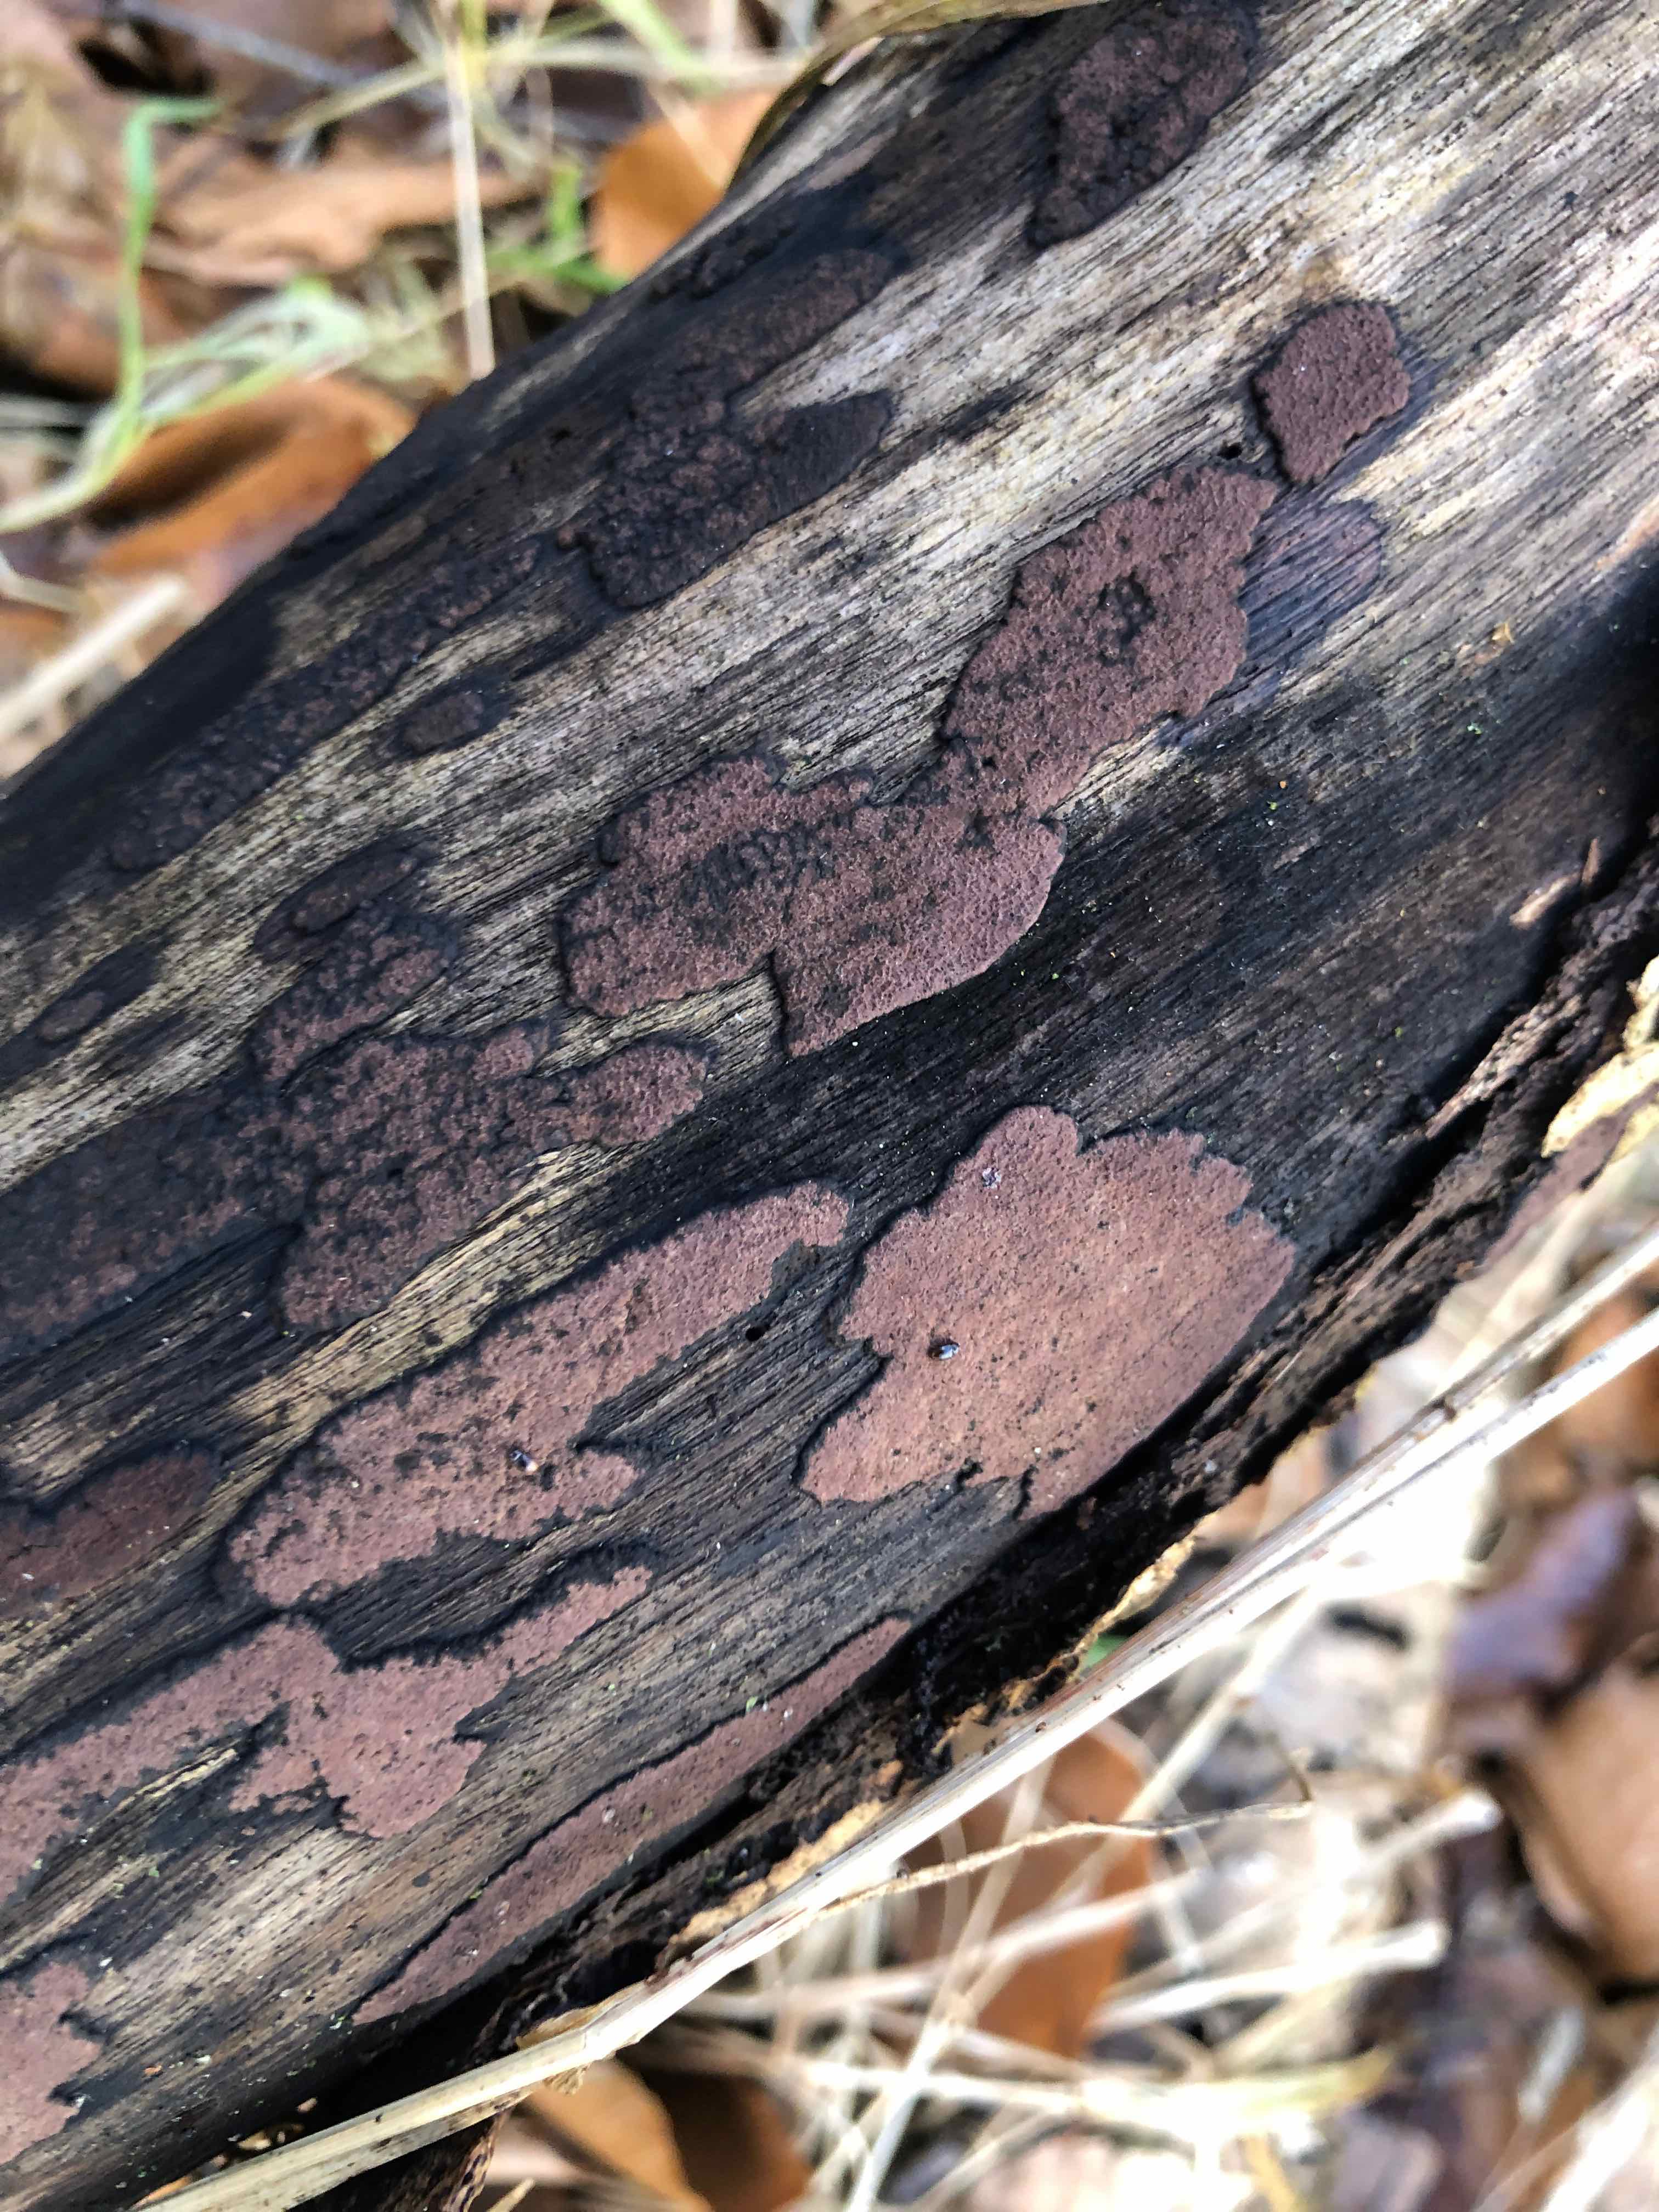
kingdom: Fungi
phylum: Ascomycota
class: Sordariomycetes
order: Xylariales
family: Hypoxylaceae
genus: Hypoxylon
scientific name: Hypoxylon petriniae
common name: nedsænket kulbær
